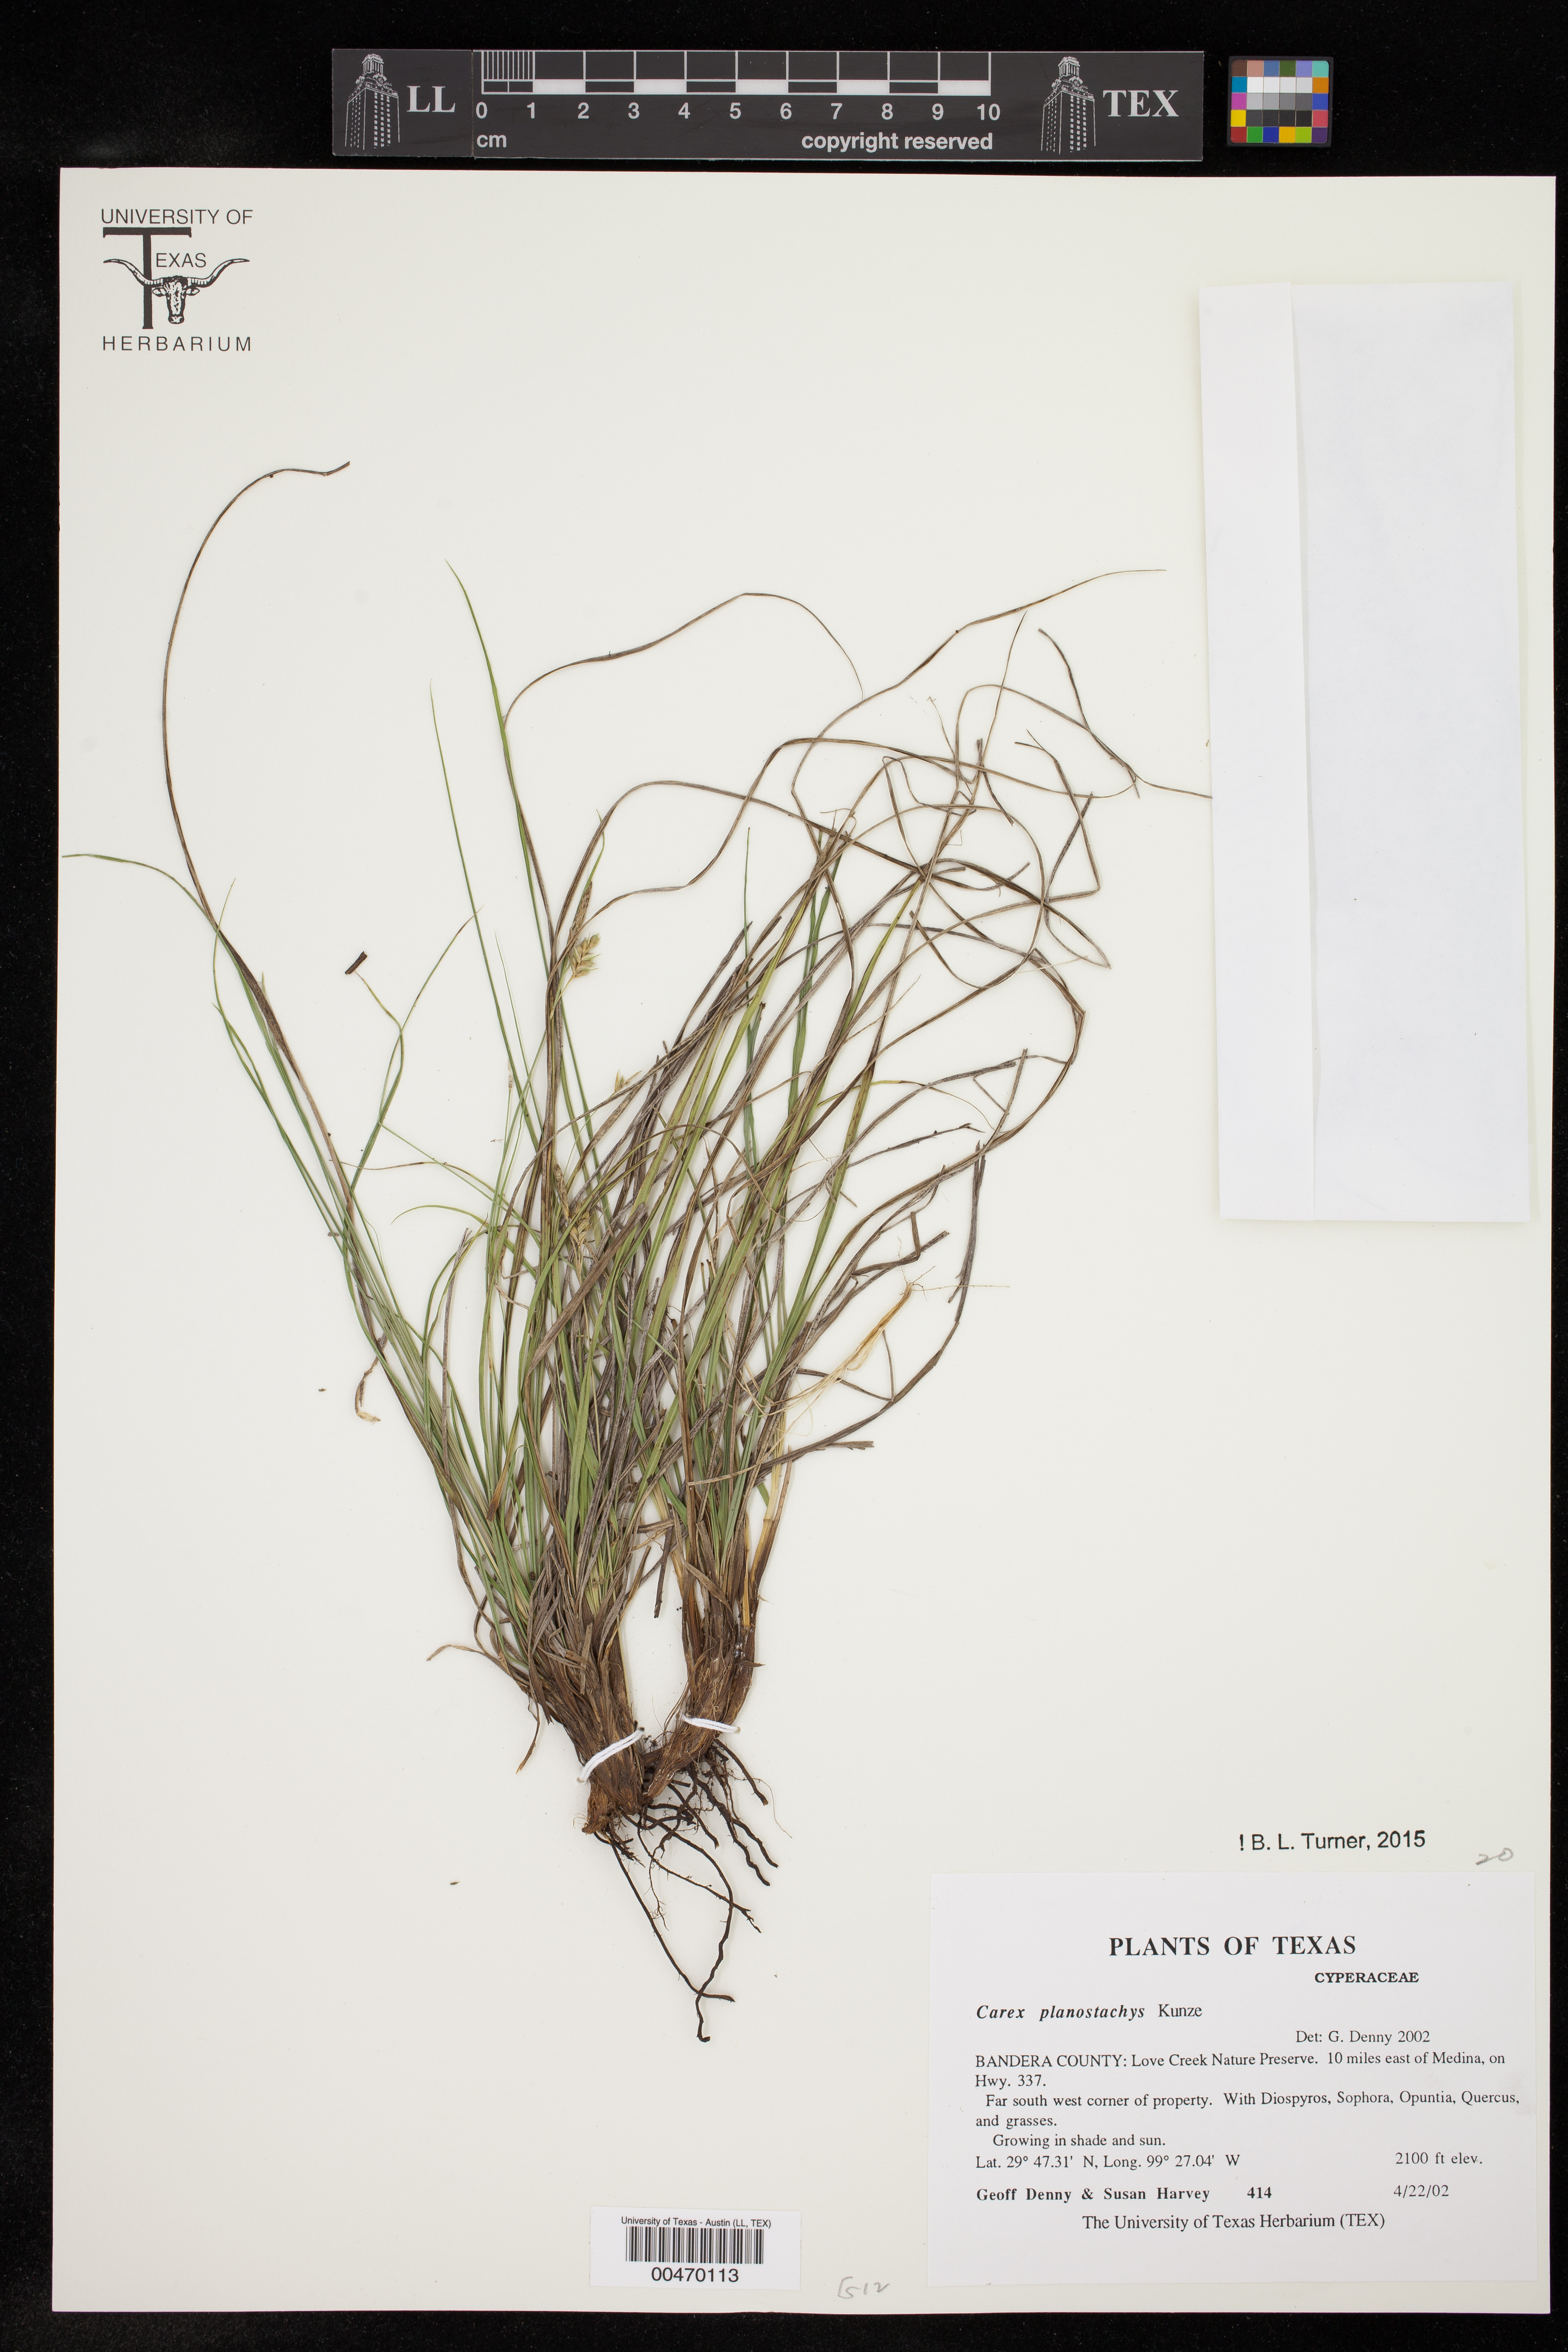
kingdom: Plantae
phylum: Tracheophyta
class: Liliopsida
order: Poales
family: Cyperaceae
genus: Carex
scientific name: Carex planostachys
